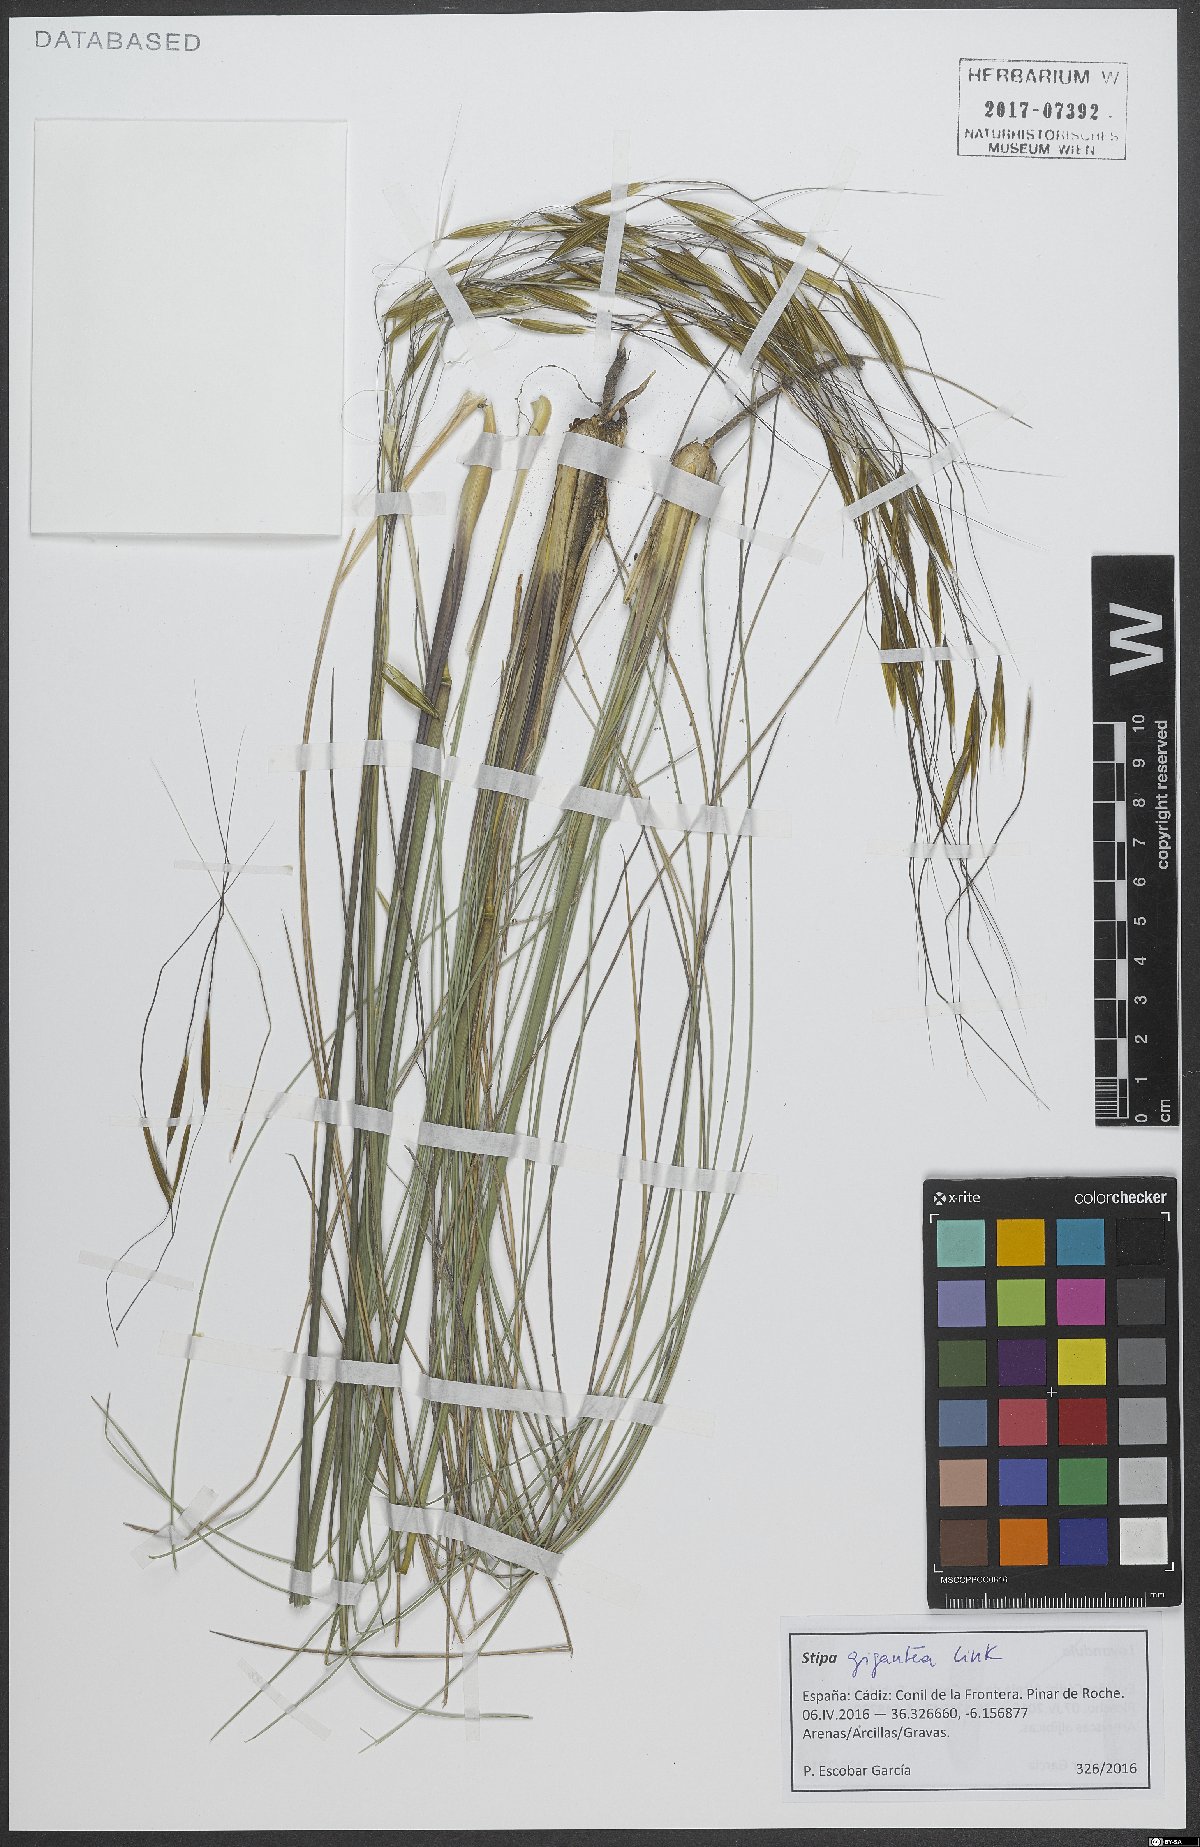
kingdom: Plantae
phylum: Tracheophyta
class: Liliopsida
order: Poales
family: Poaceae
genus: Celtica
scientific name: Celtica gigantea
